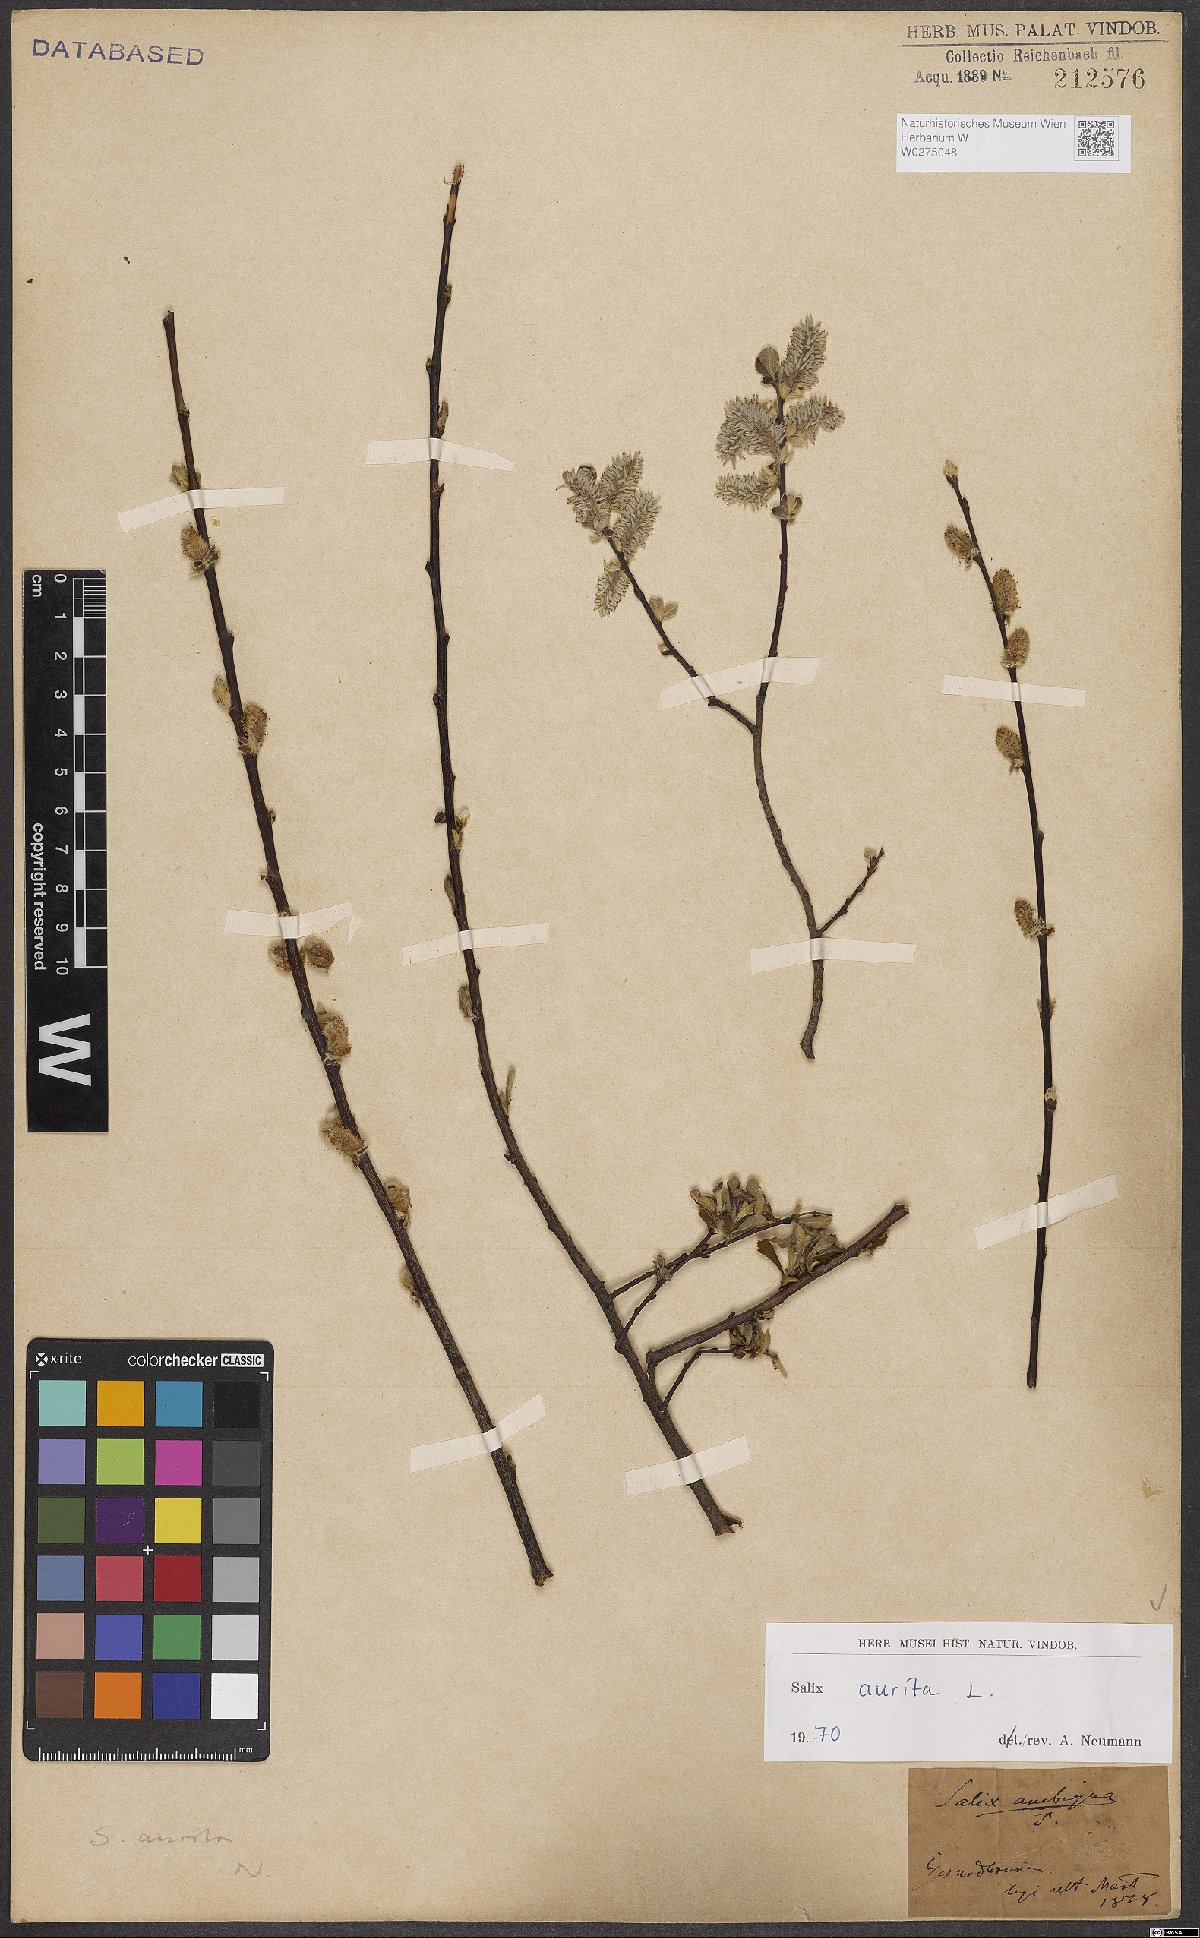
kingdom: Plantae
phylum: Tracheophyta
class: Magnoliopsida
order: Malpighiales
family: Salicaceae
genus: Salix
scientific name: Salix aurita
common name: Eared willow
